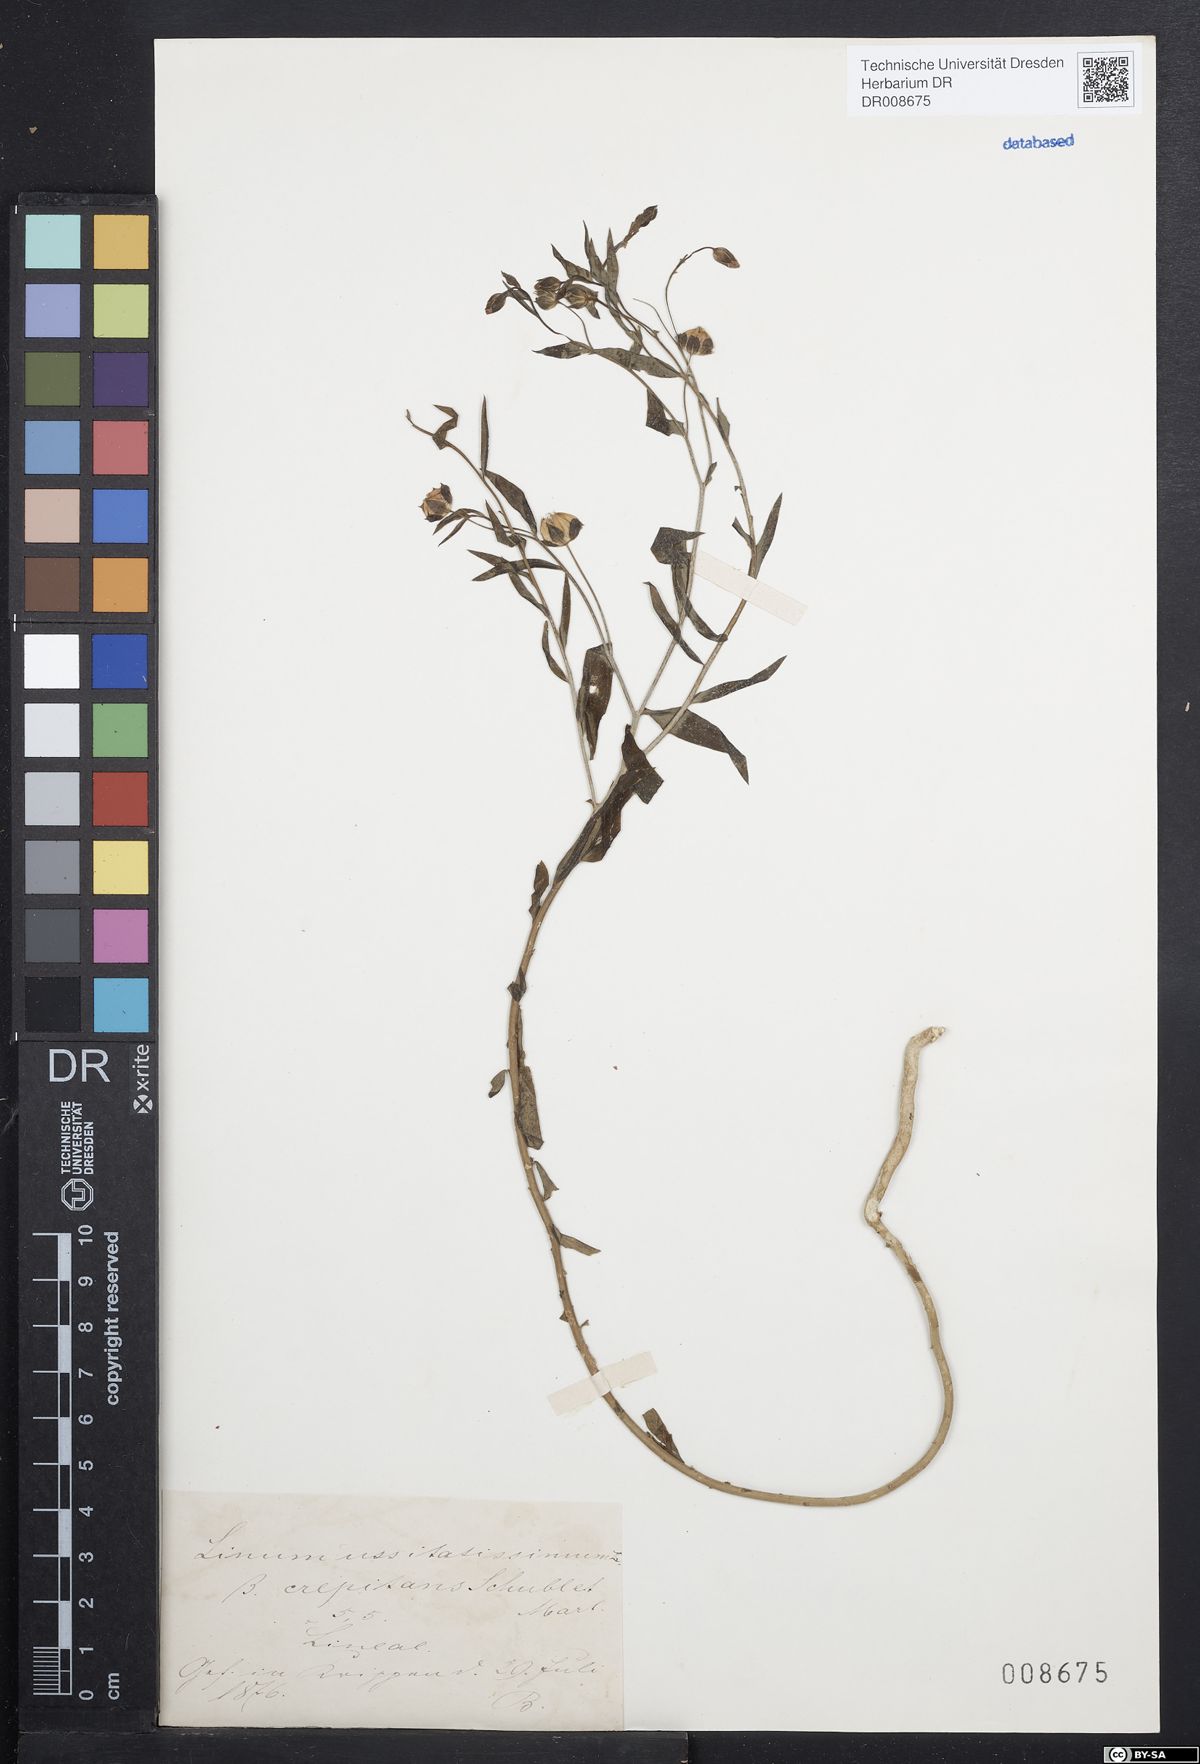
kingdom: Plantae
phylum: Tracheophyta
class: Magnoliopsida
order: Malpighiales
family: Linaceae
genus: Linum
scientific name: Linum usitatissimum
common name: Flax
